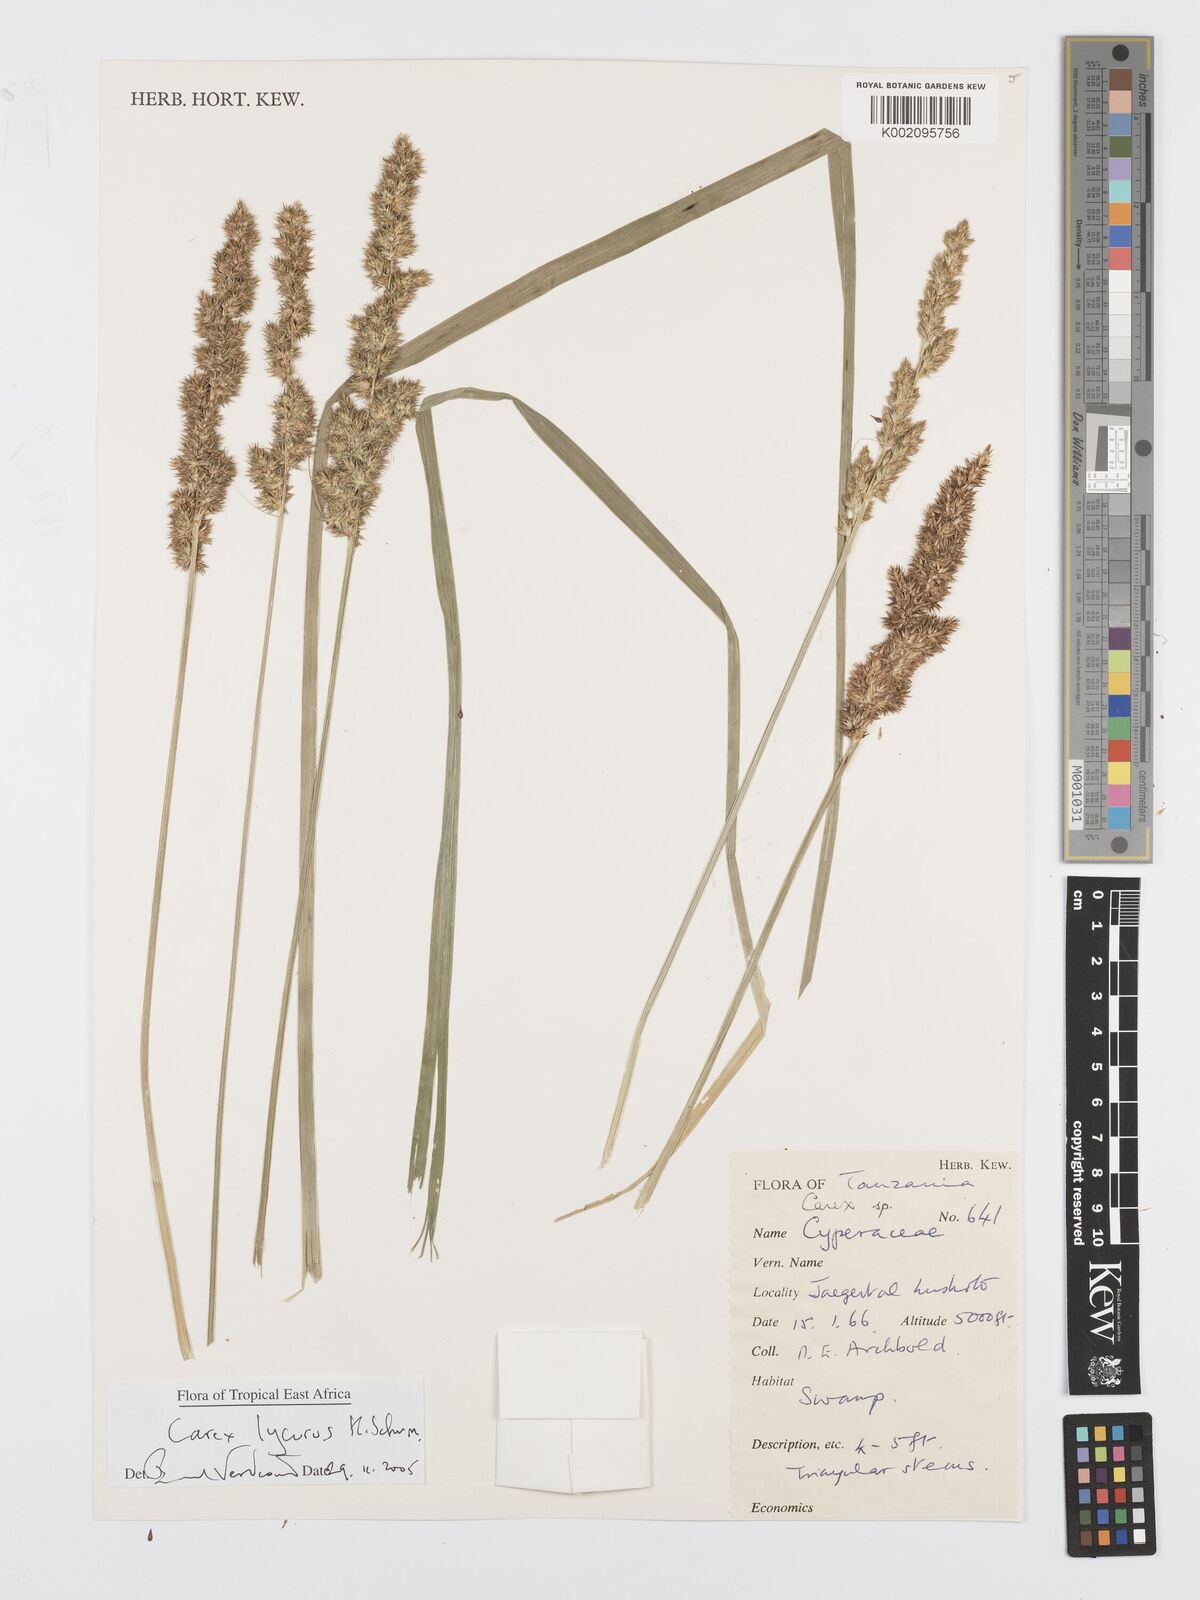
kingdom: Plantae
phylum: Tracheophyta
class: Liliopsida
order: Poales
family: Cyperaceae
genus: Carex
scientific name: Carex lycurus
